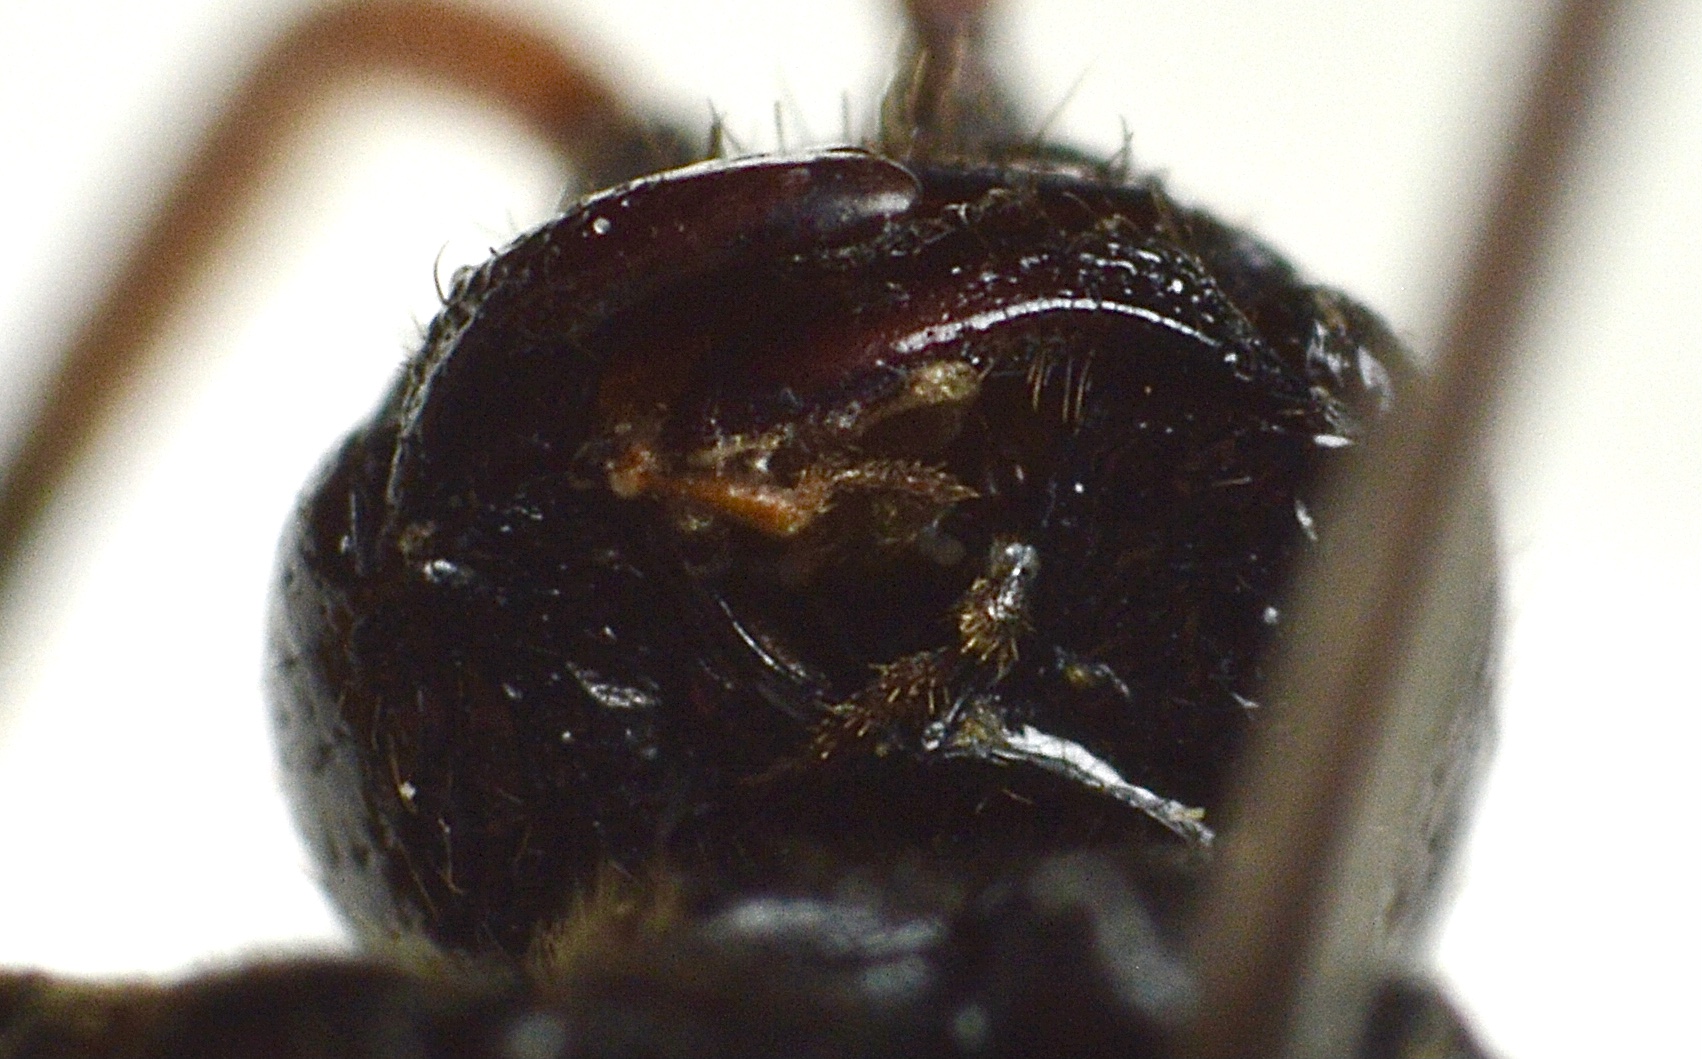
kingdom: Animalia
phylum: Arthropoda
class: Insecta
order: Hymenoptera
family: Ichneumonidae
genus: Alomya
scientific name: Alomya debellator
